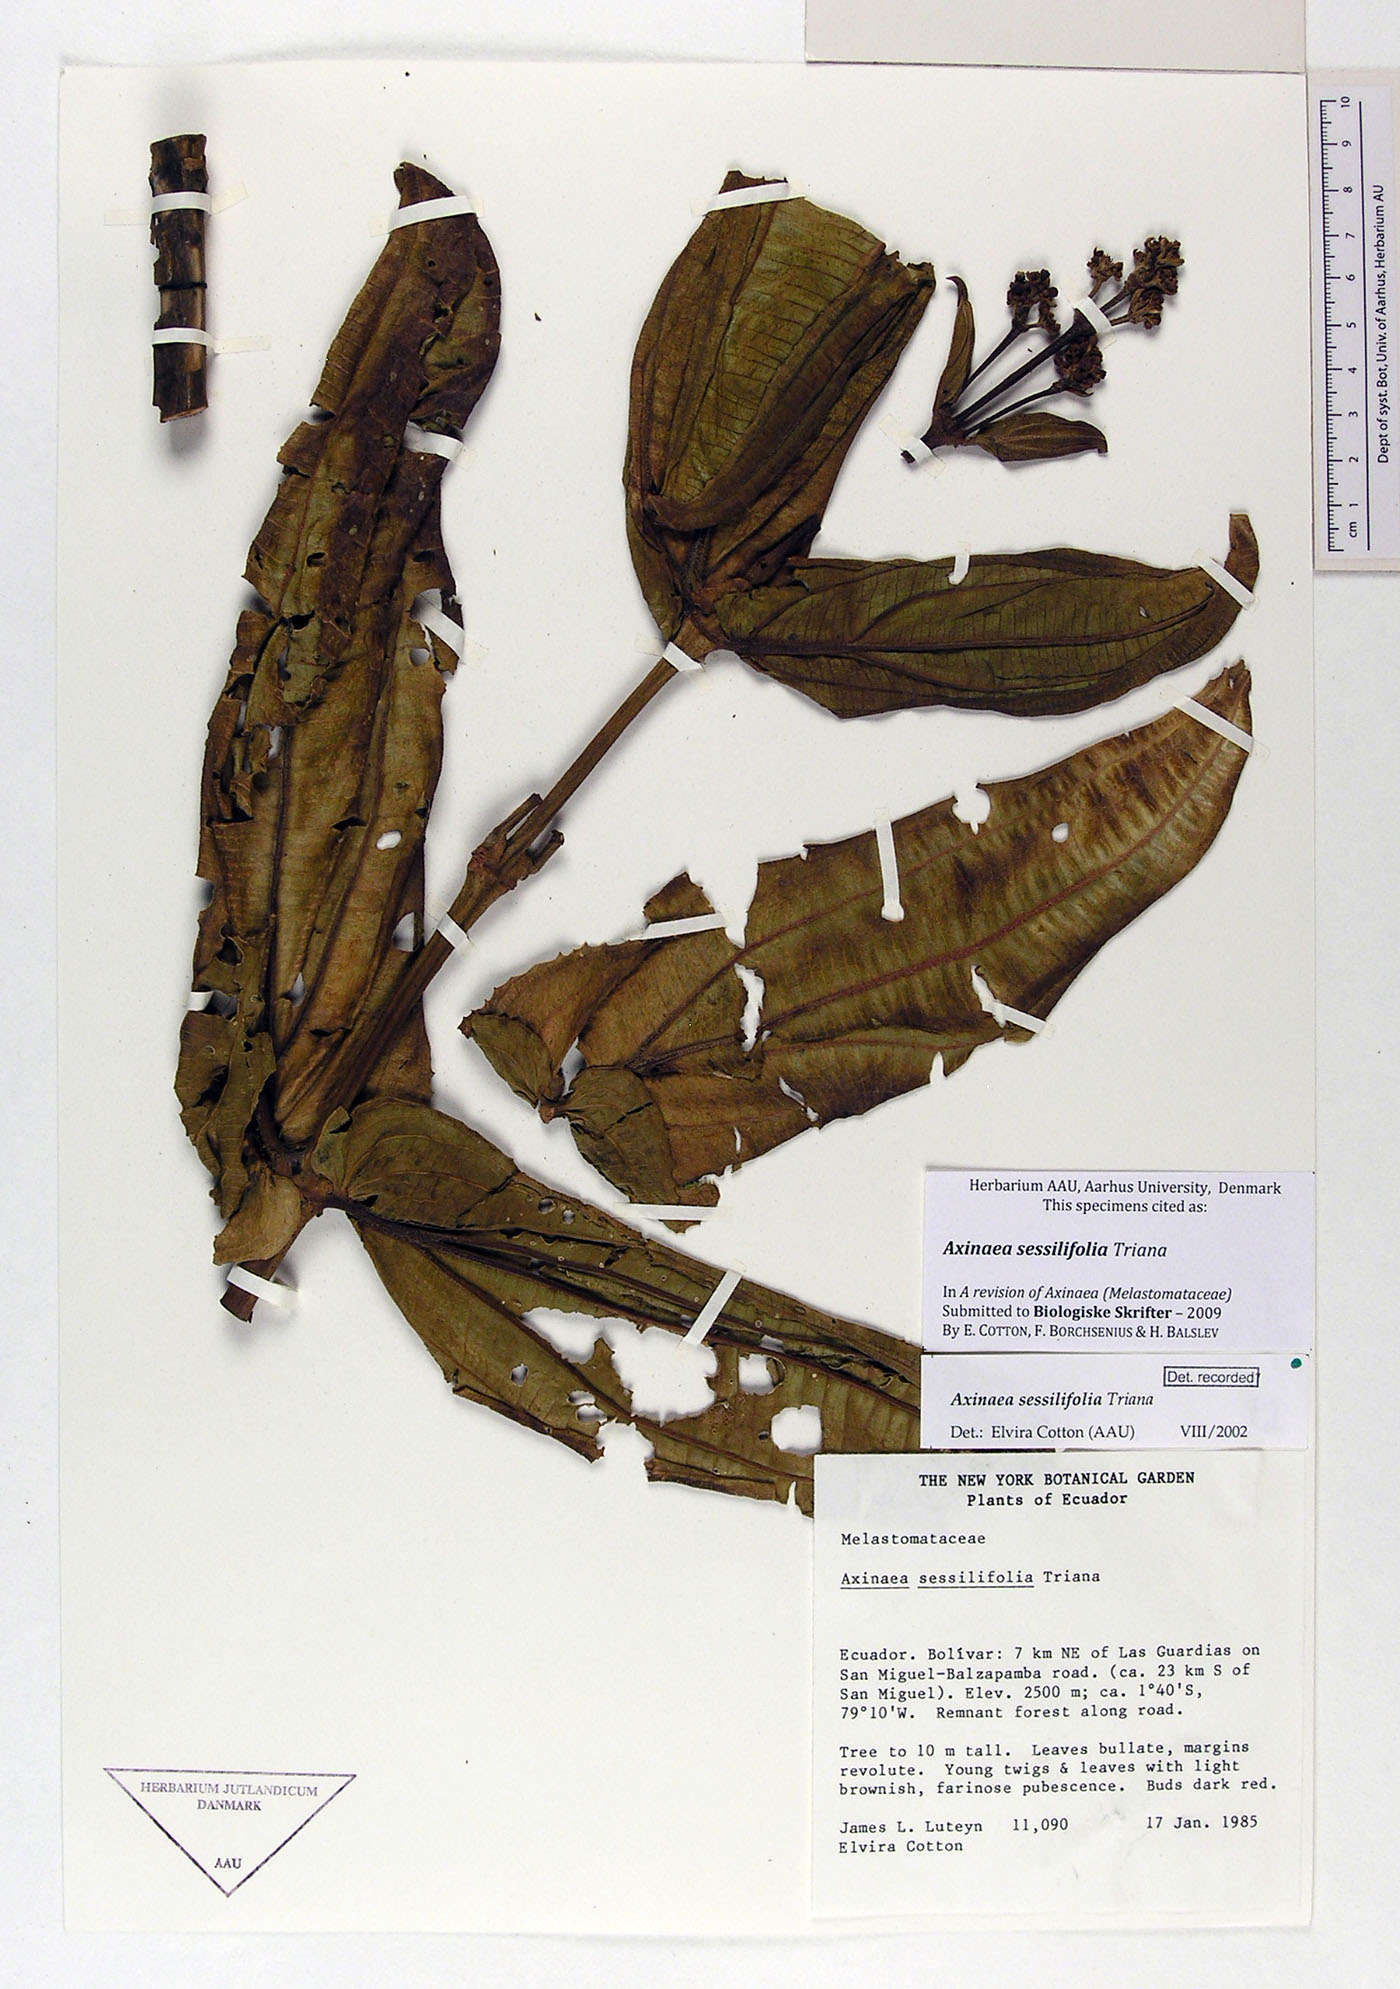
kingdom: Plantae
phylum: Tracheophyta
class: Magnoliopsida
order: Myrtales
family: Melastomataceae
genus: Axinaea
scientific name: Axinaea sessilifolia
